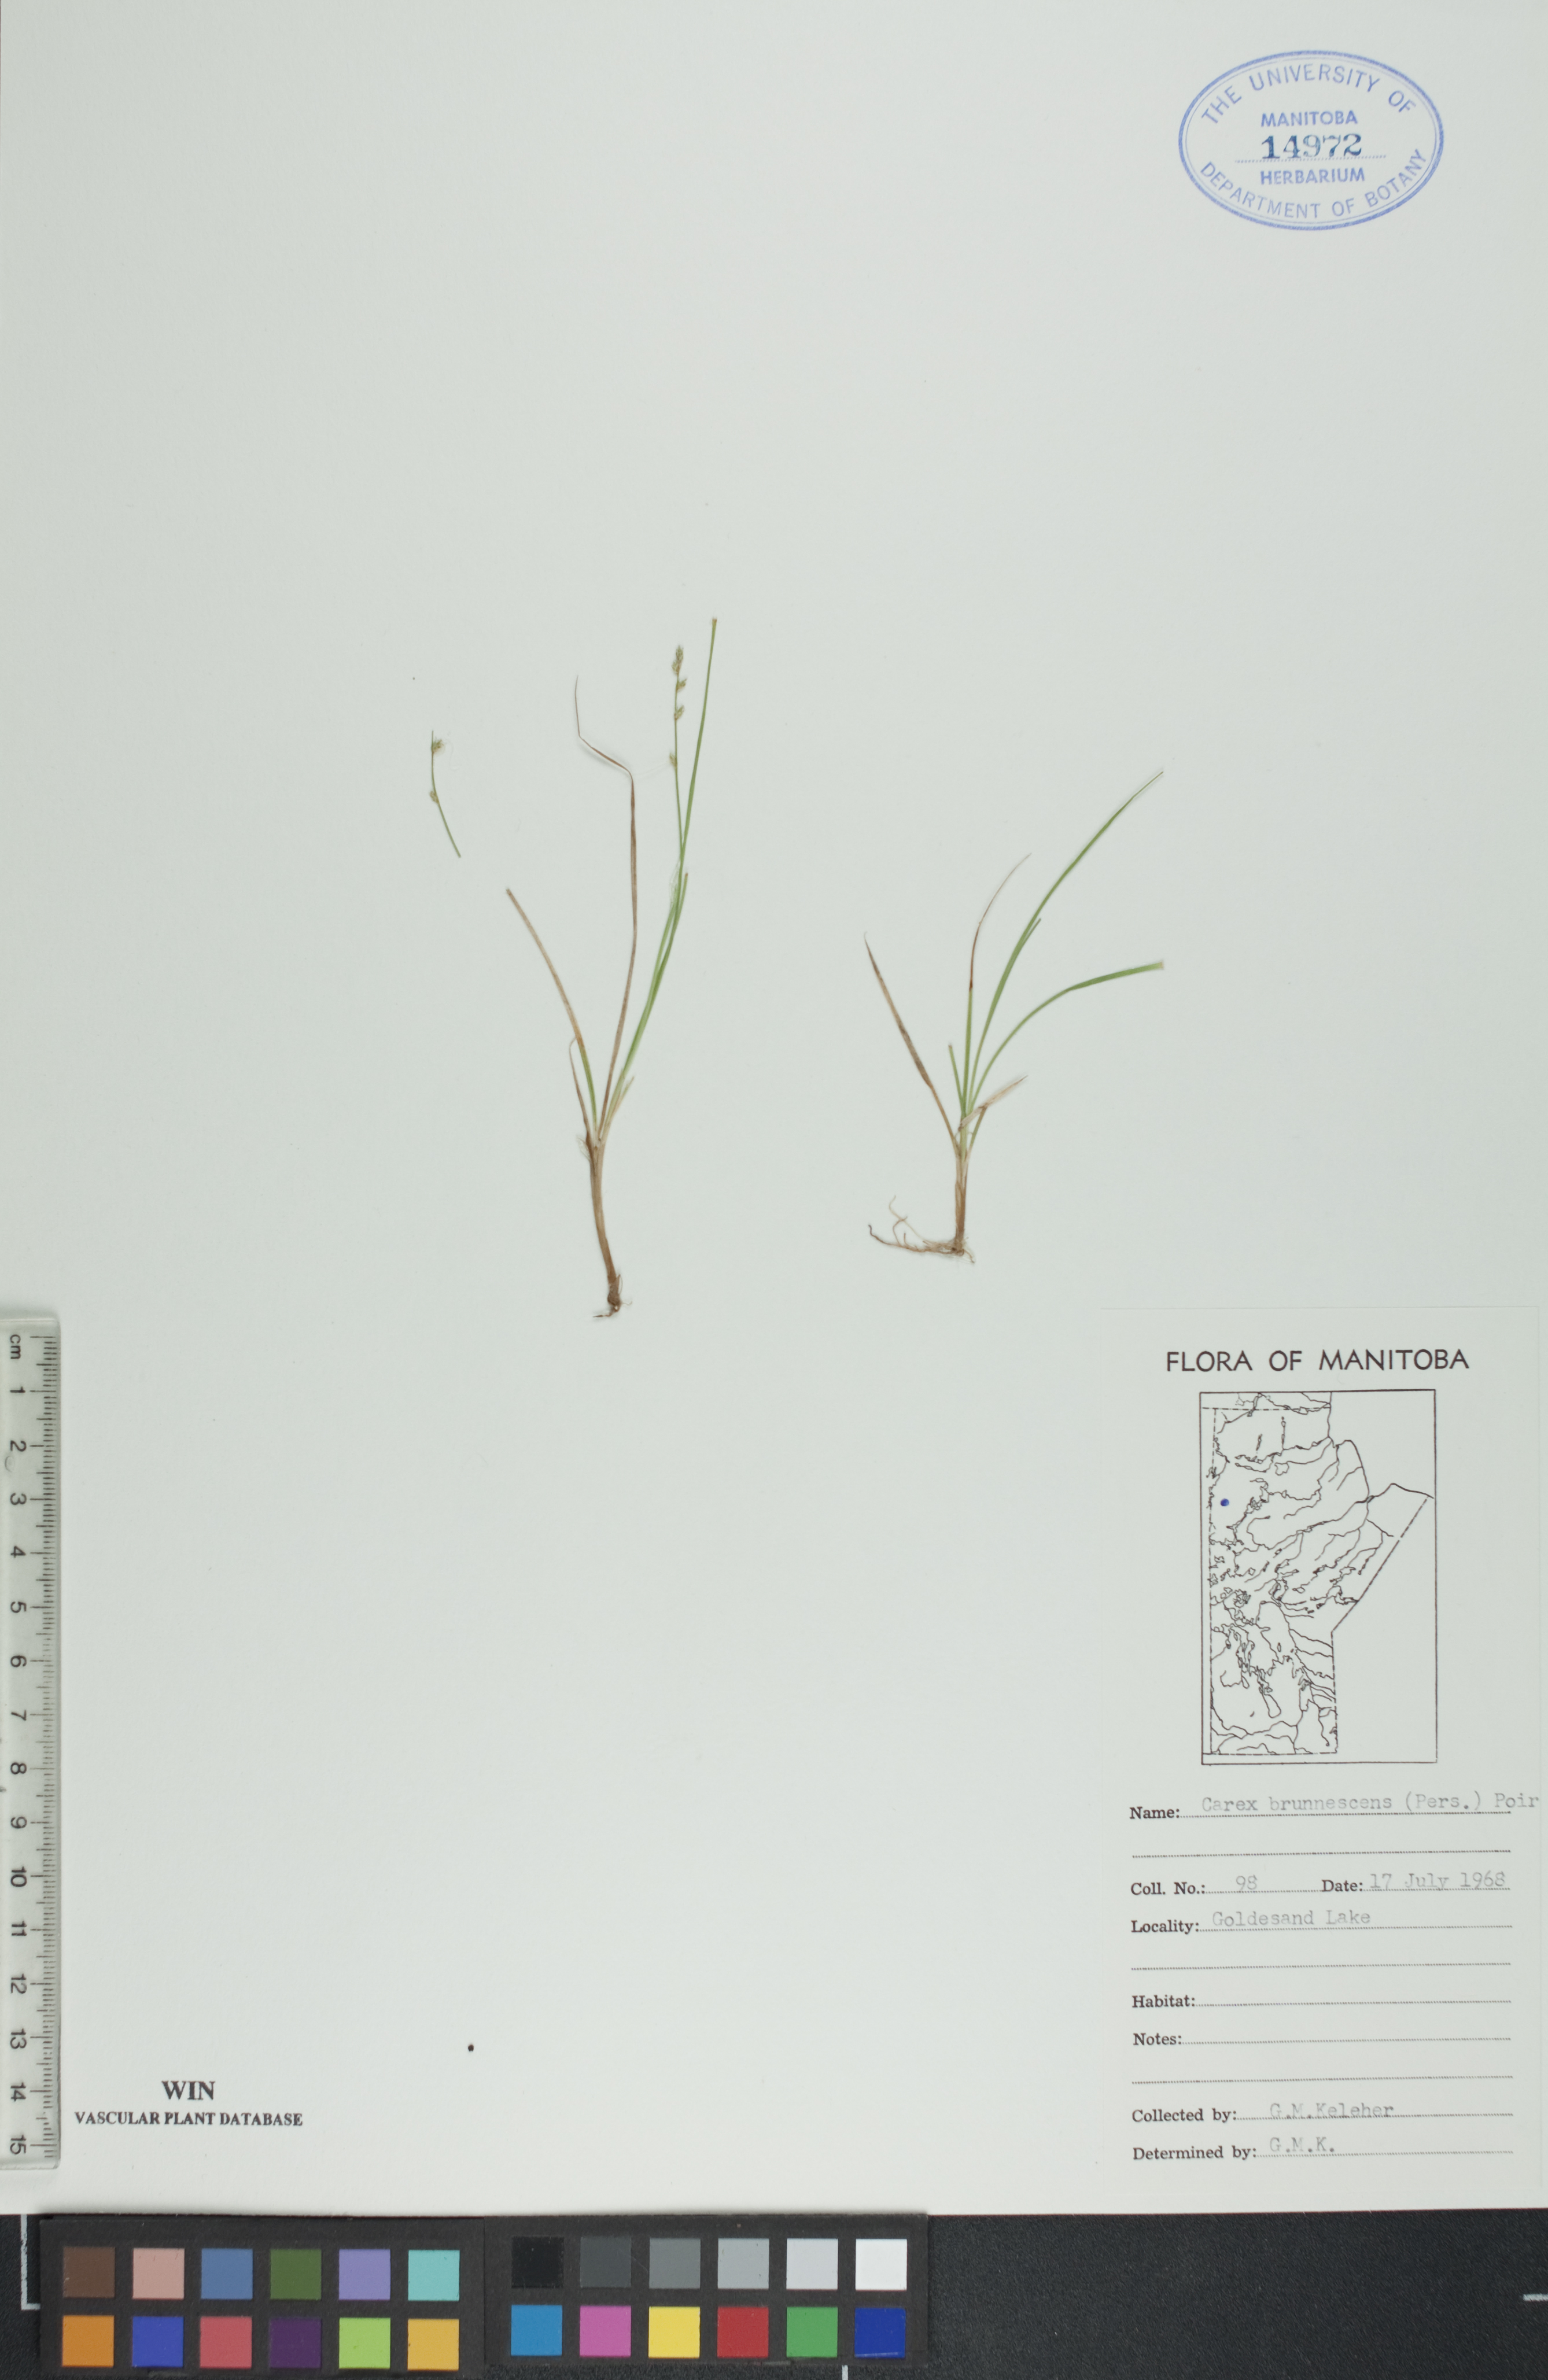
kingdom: Plantae
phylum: Tracheophyta
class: Liliopsida
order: Poales
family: Cyperaceae
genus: Carex
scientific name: Carex brunnescens
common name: Brown sedge
